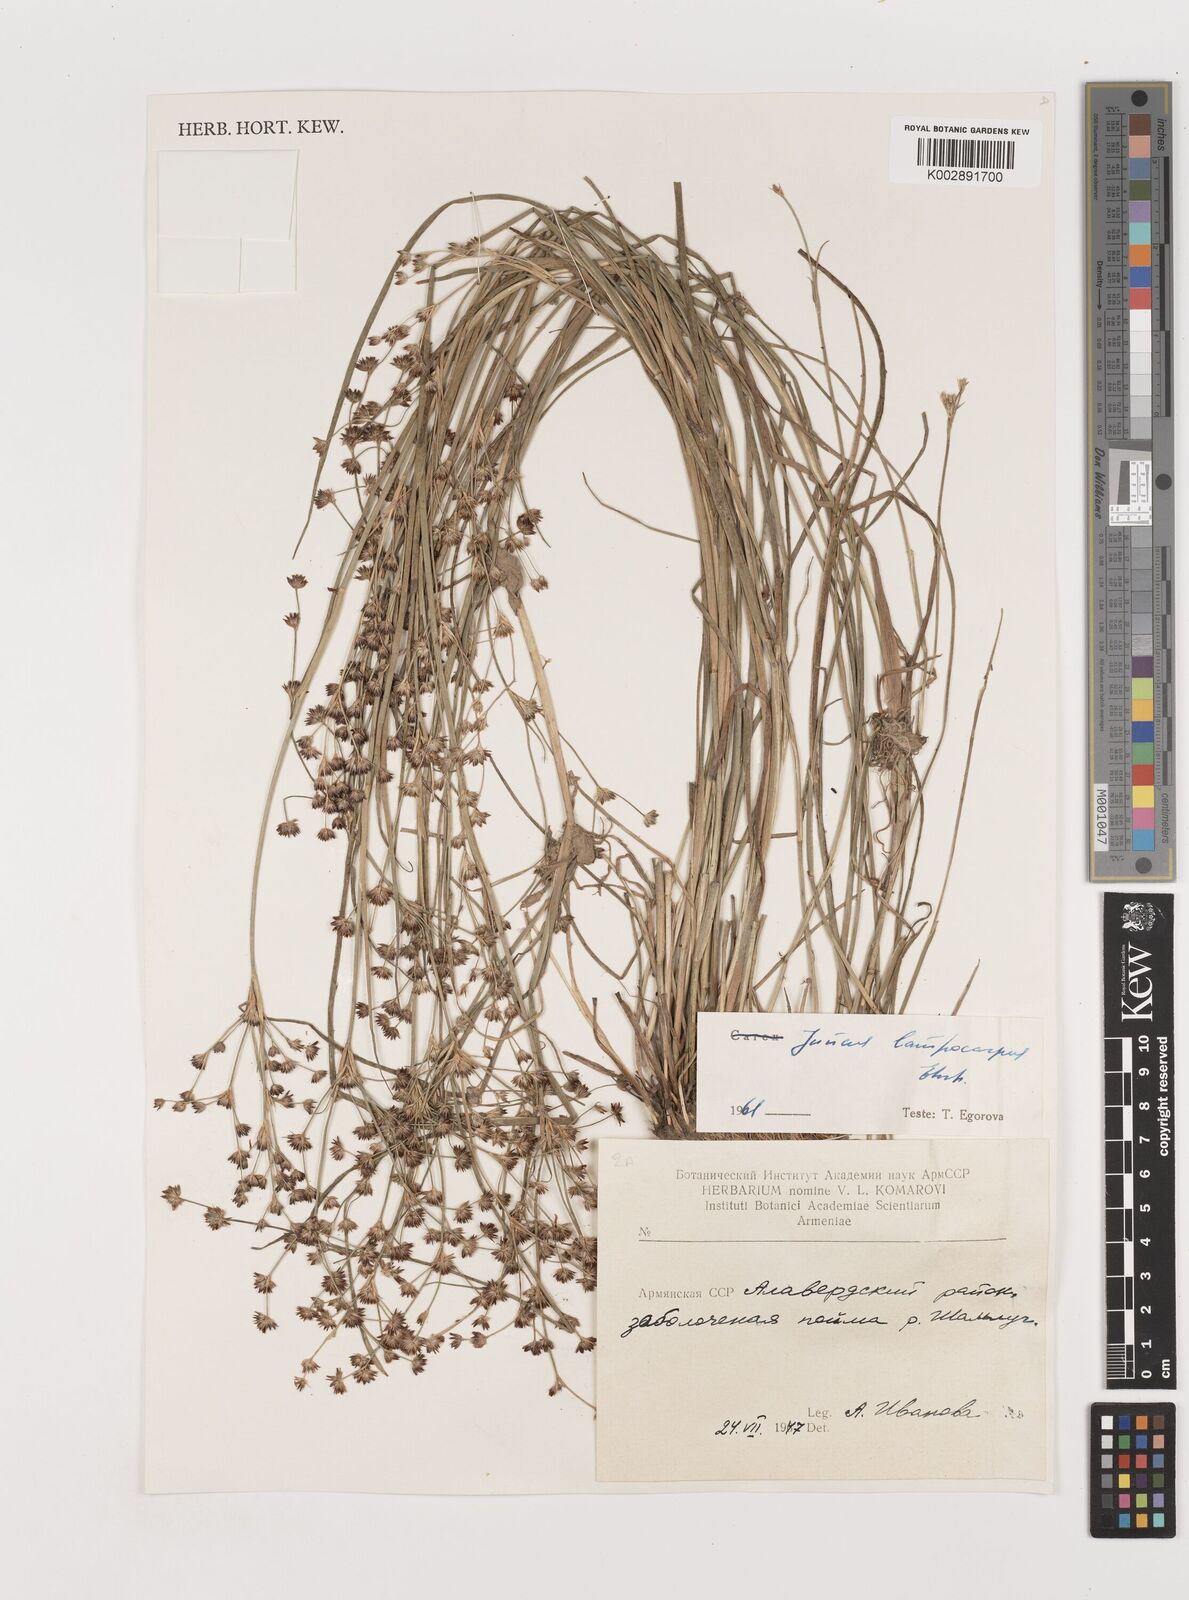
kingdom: Plantae
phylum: Tracheophyta
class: Liliopsida
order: Poales
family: Juncaceae
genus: Juncus
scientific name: Juncus astreptus
